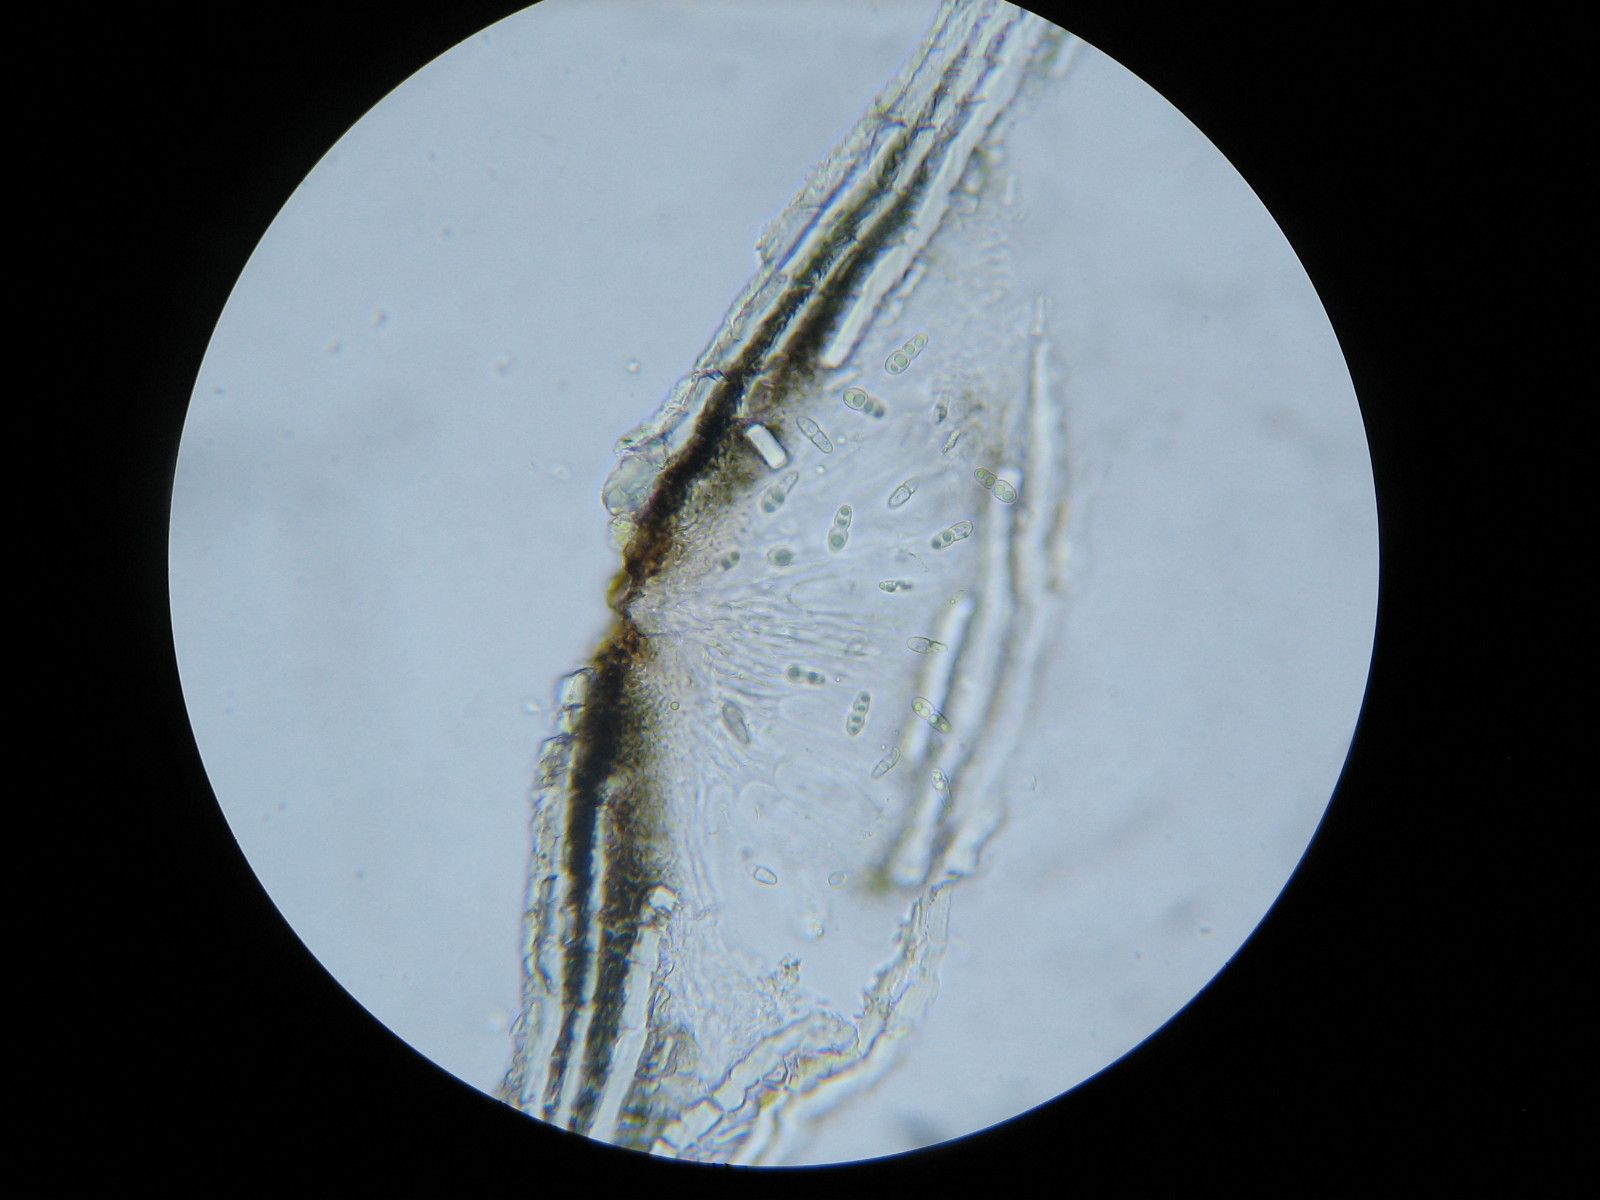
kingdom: Fungi
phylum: Ascomycota
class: Dothideomycetes
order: Trypetheliales
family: Trypetheliaceae
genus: Arthopyrenia
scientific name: Arthopyrenia analepta
